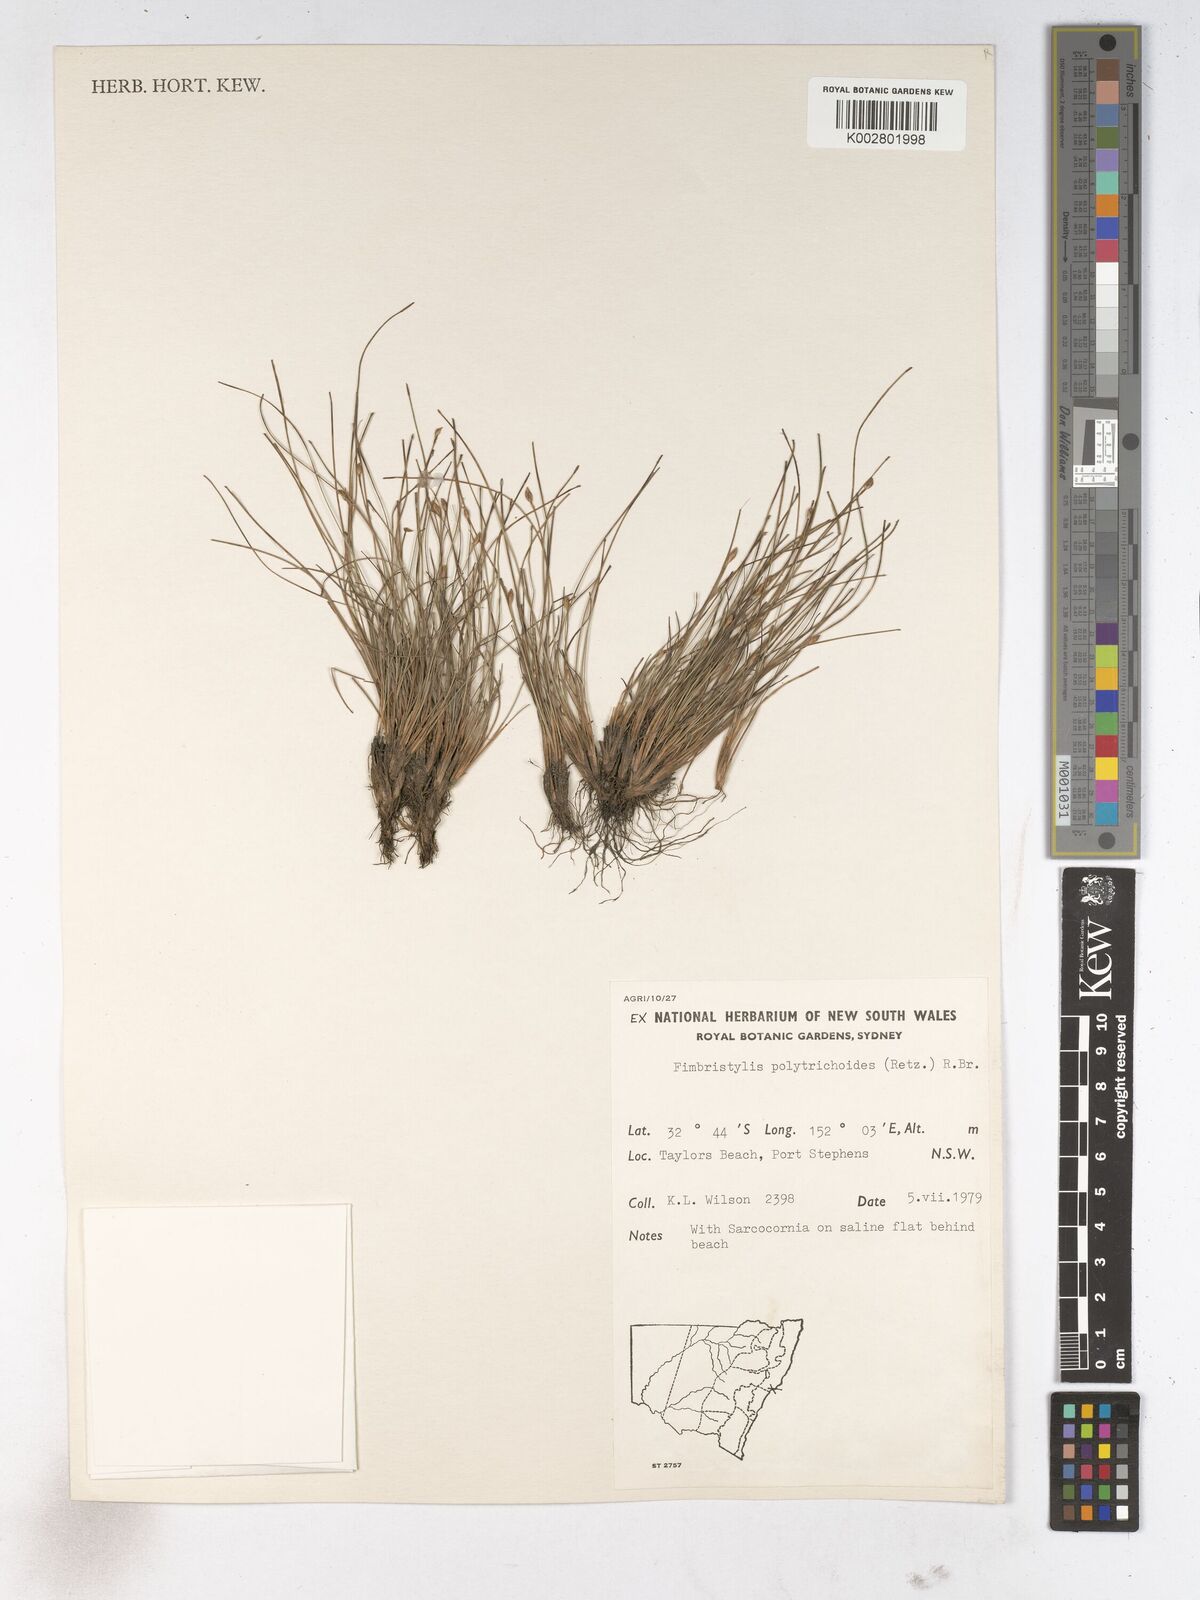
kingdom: Plantae
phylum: Tracheophyta
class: Liliopsida
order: Poales
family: Cyperaceae
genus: Fimbristylis
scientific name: Fimbristylis polytrichoides
